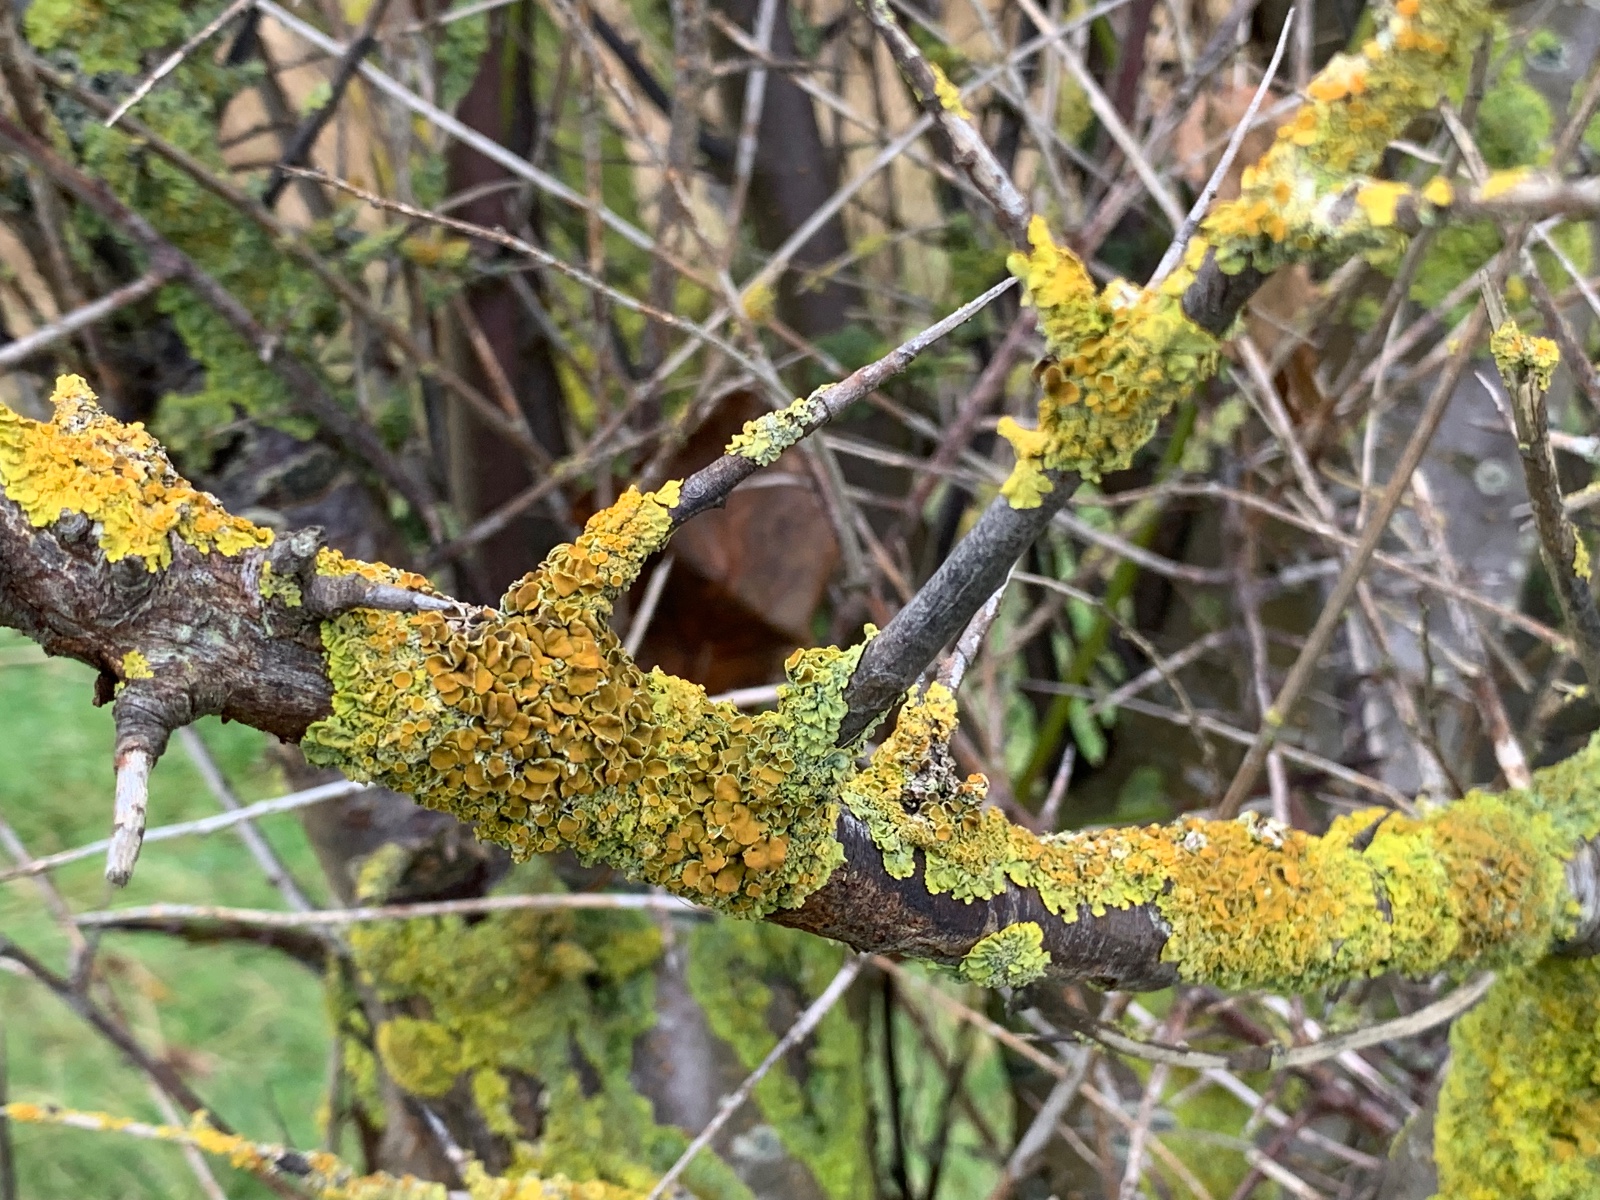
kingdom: Fungi
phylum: Ascomycota
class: Lecanoromycetes
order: Teloschistales
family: Teloschistaceae
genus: Xanthoria
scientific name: Xanthoria parietina
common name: almindelig væggelav
